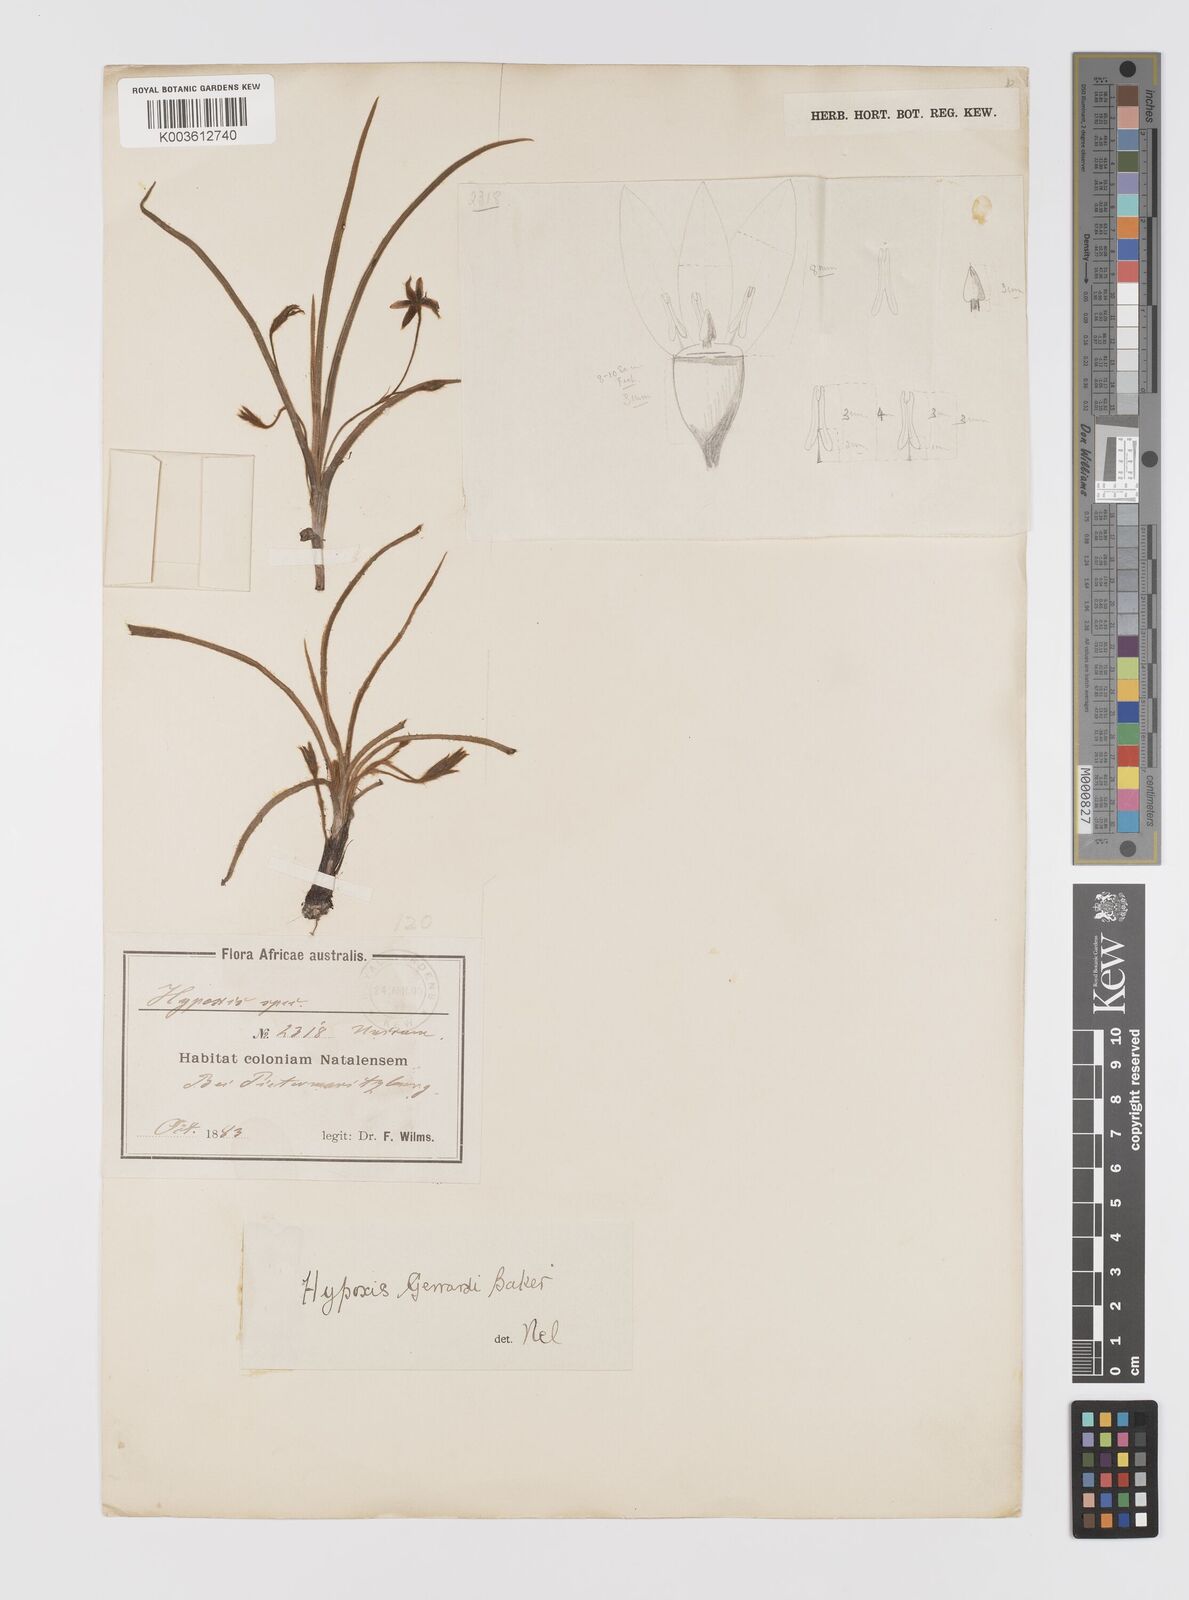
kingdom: Plantae
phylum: Tracheophyta
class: Liliopsida
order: Asparagales
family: Hypoxidaceae
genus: Hypoxis
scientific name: Hypoxis gerrardii
